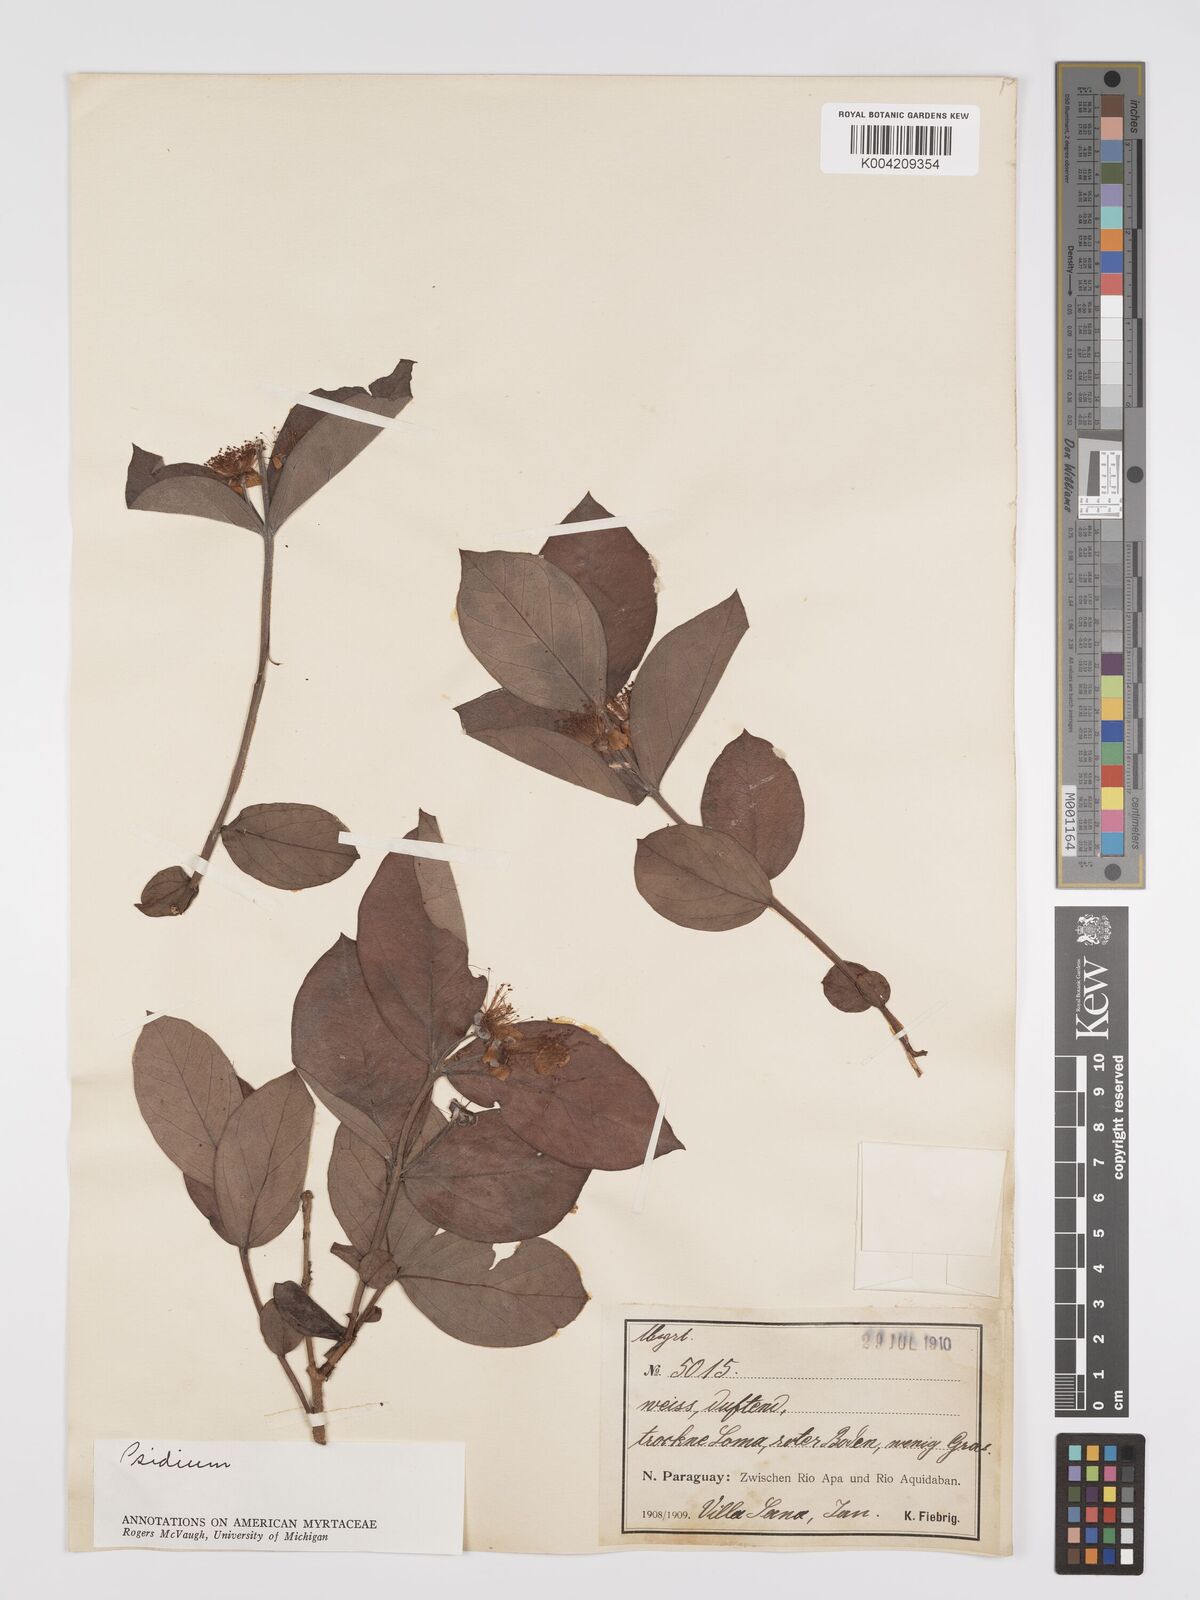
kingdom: Plantae
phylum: Tracheophyta
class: Magnoliopsida
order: Myrtales
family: Myrtaceae
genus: Psidium
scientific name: Psidium grandifolium
